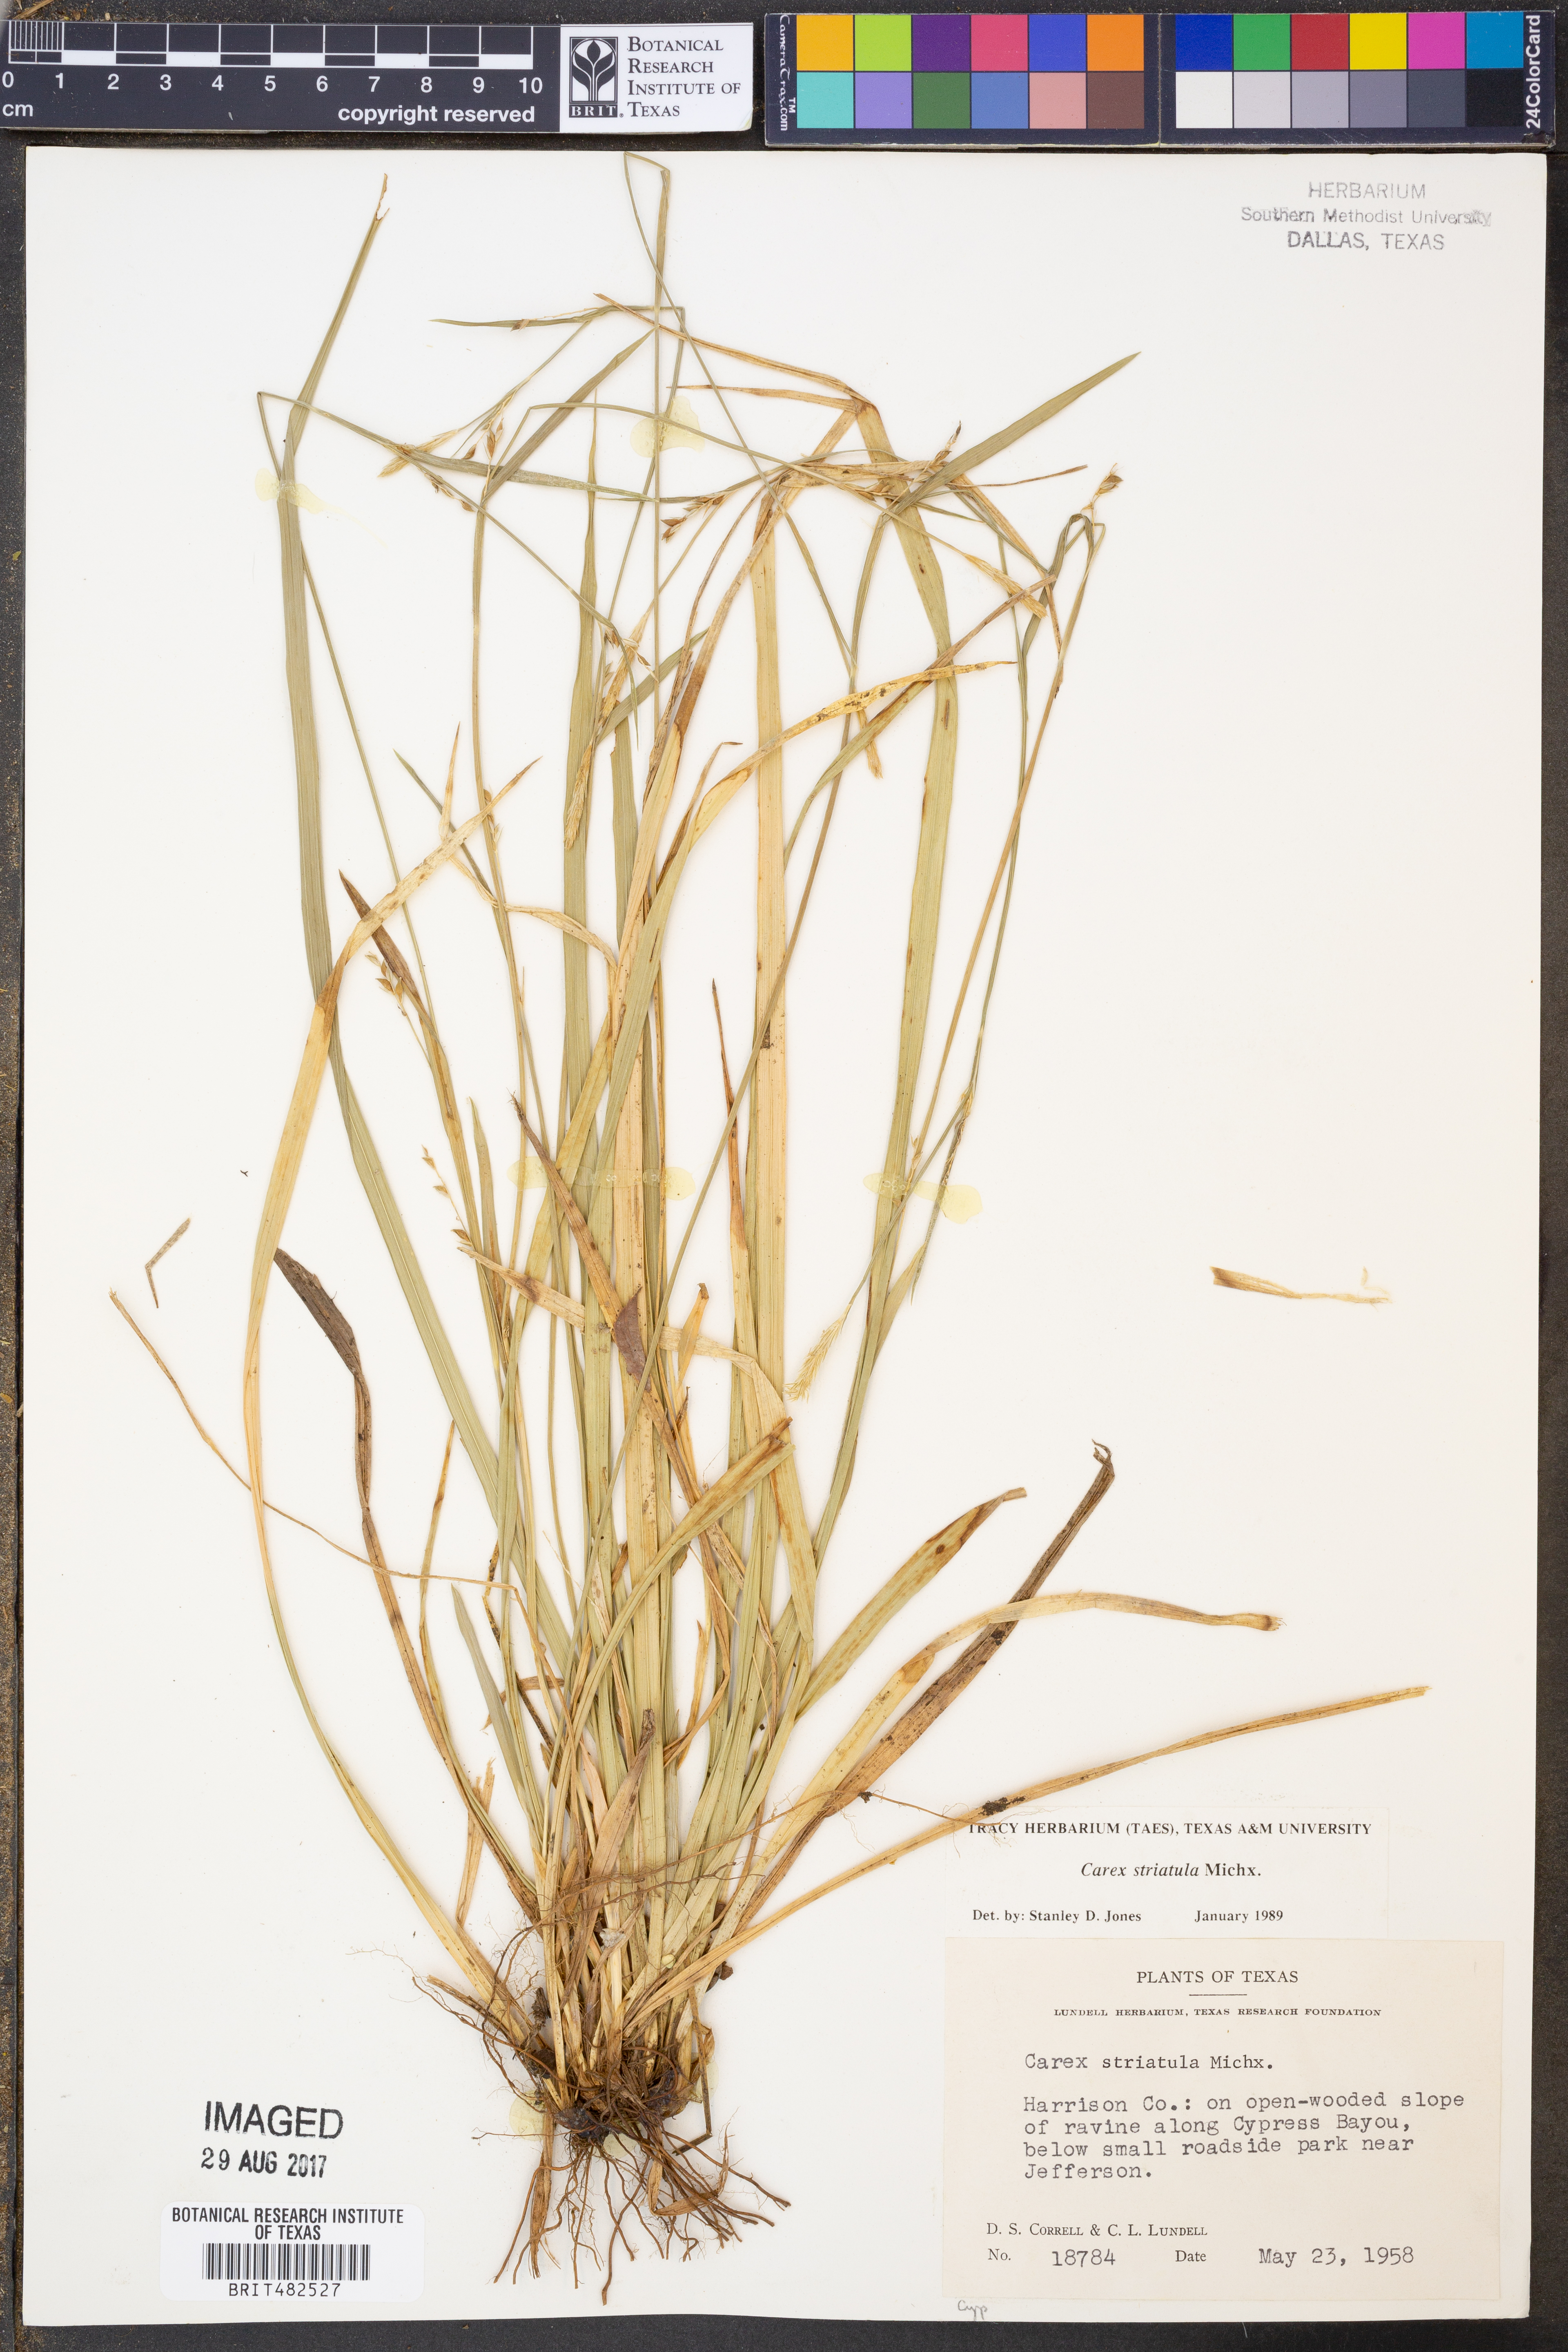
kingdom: Plantae
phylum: Tracheophyta
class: Liliopsida
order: Poales
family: Cyperaceae
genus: Carex
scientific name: Carex striatula
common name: Lined sedge
